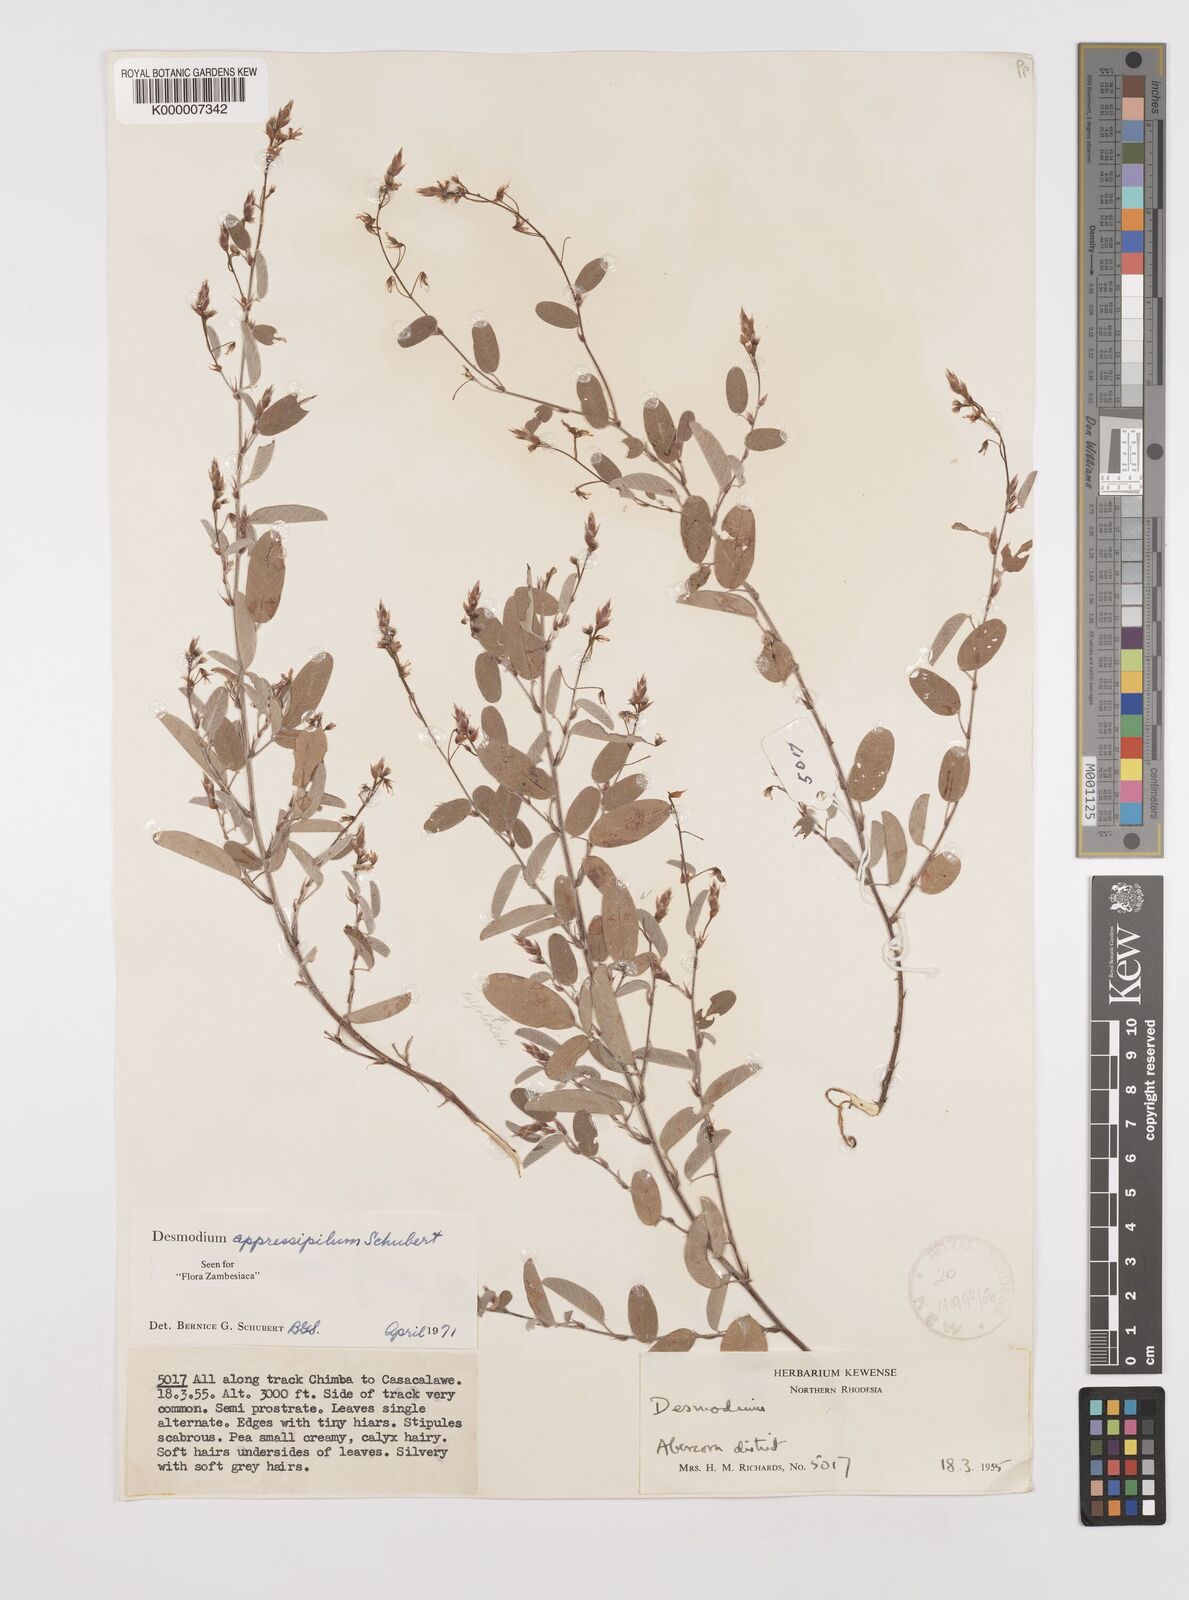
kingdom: Plantae
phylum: Tracheophyta
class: Magnoliopsida
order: Fabales
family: Fabaceae
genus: Grona
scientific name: Grona appressipila
